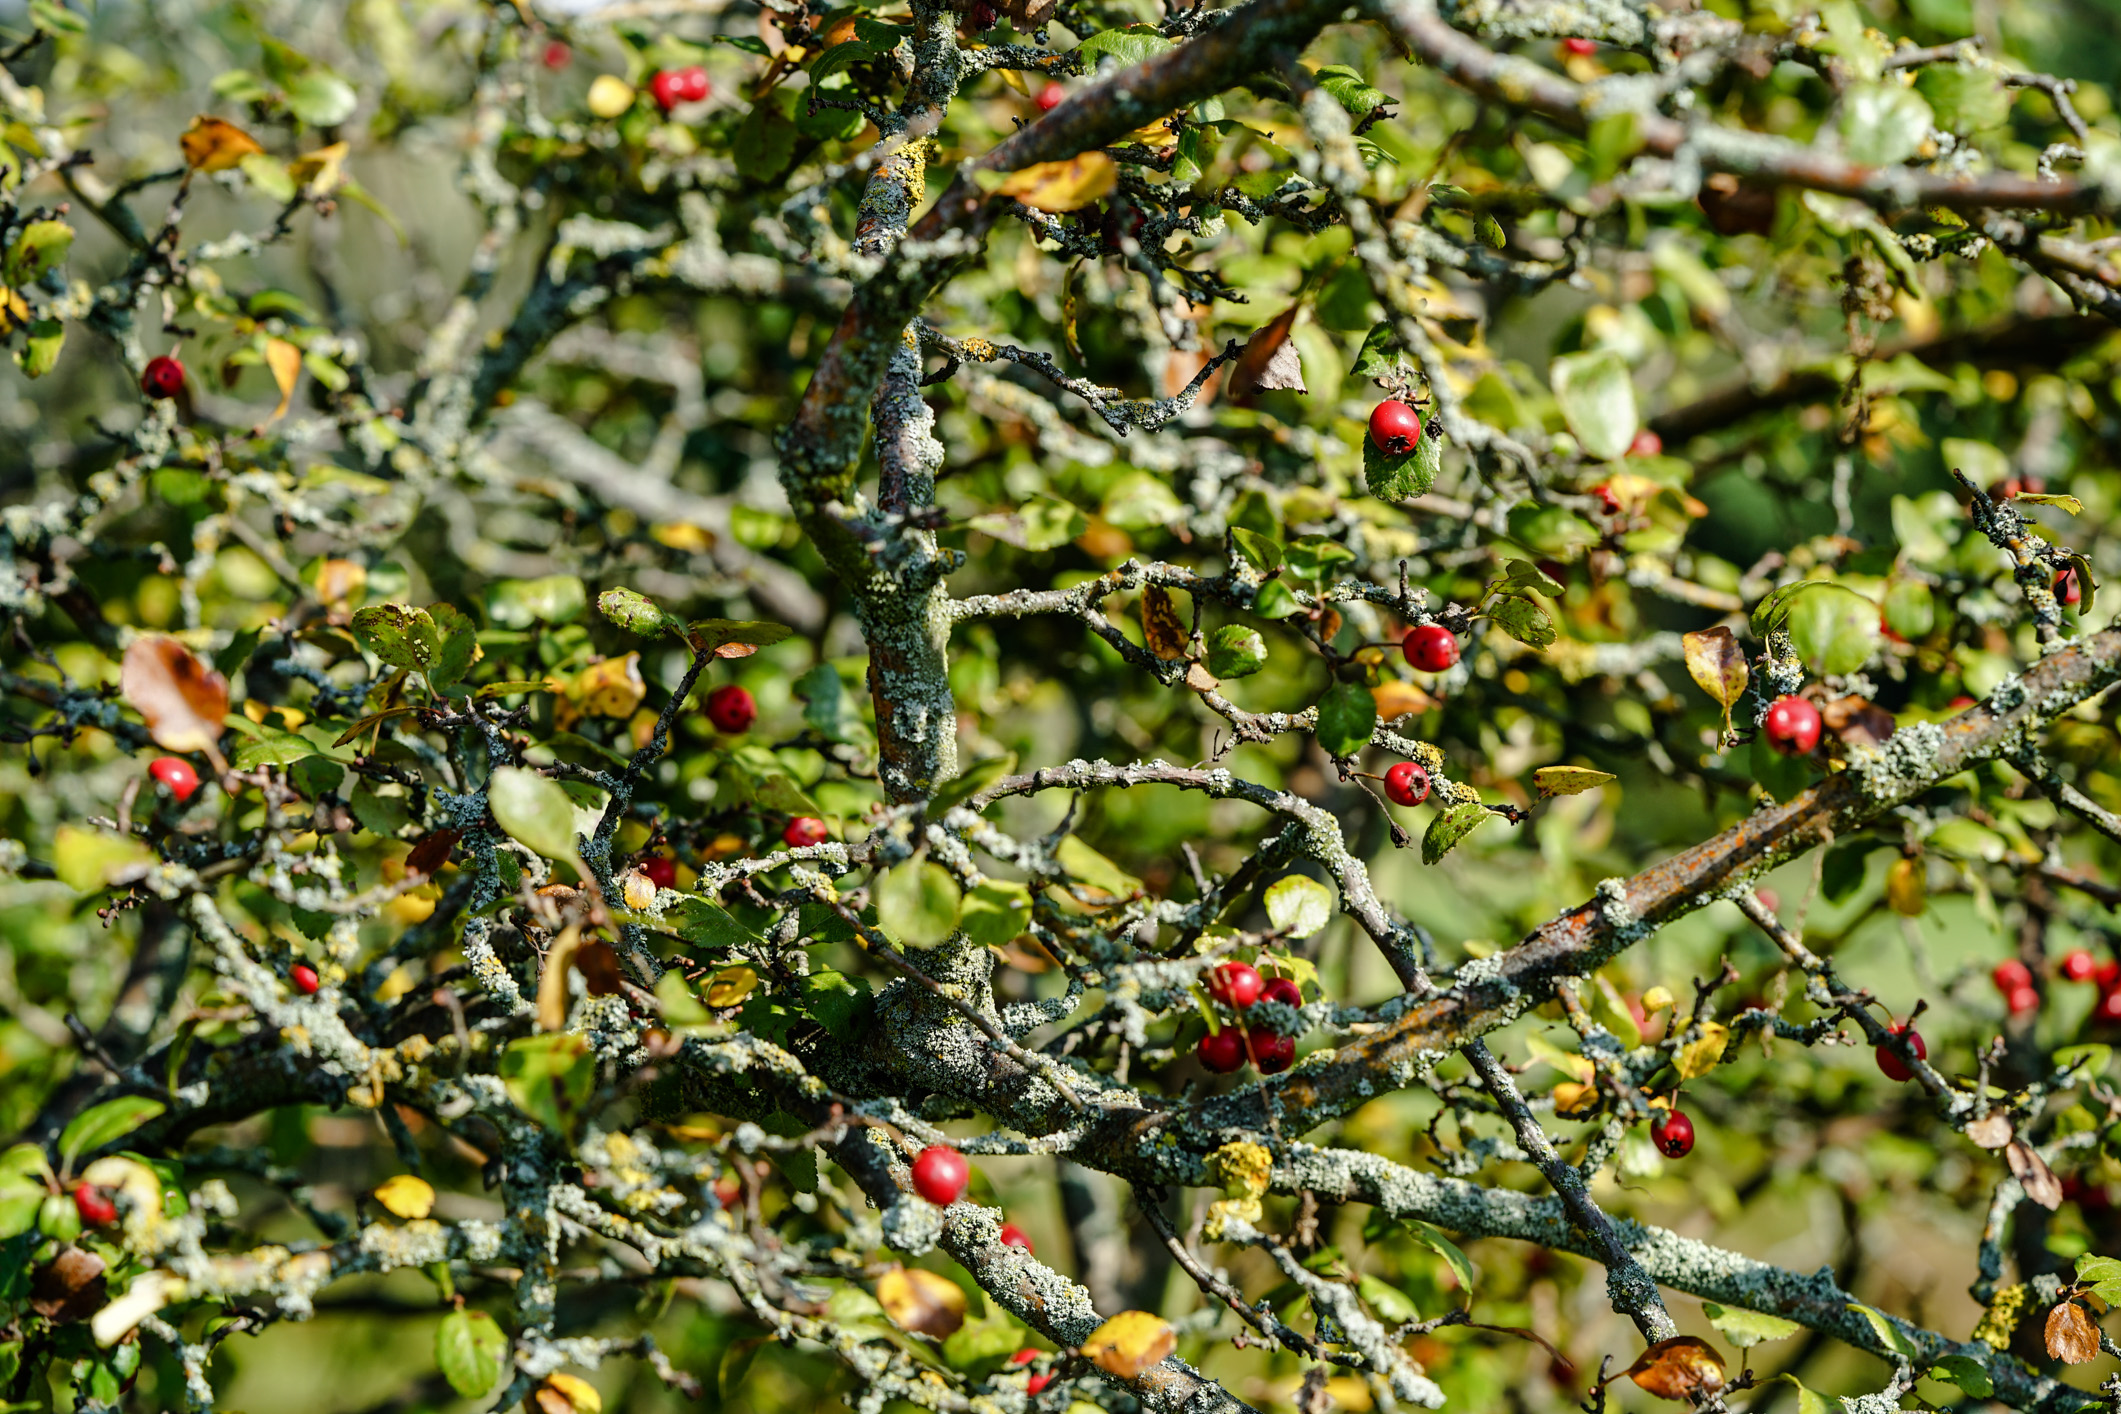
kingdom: Plantae
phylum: Tracheophyta
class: Magnoliopsida
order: Rosales
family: Rosaceae
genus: Crataegus
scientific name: Crataegus laevigata
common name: Midland hawthorn
